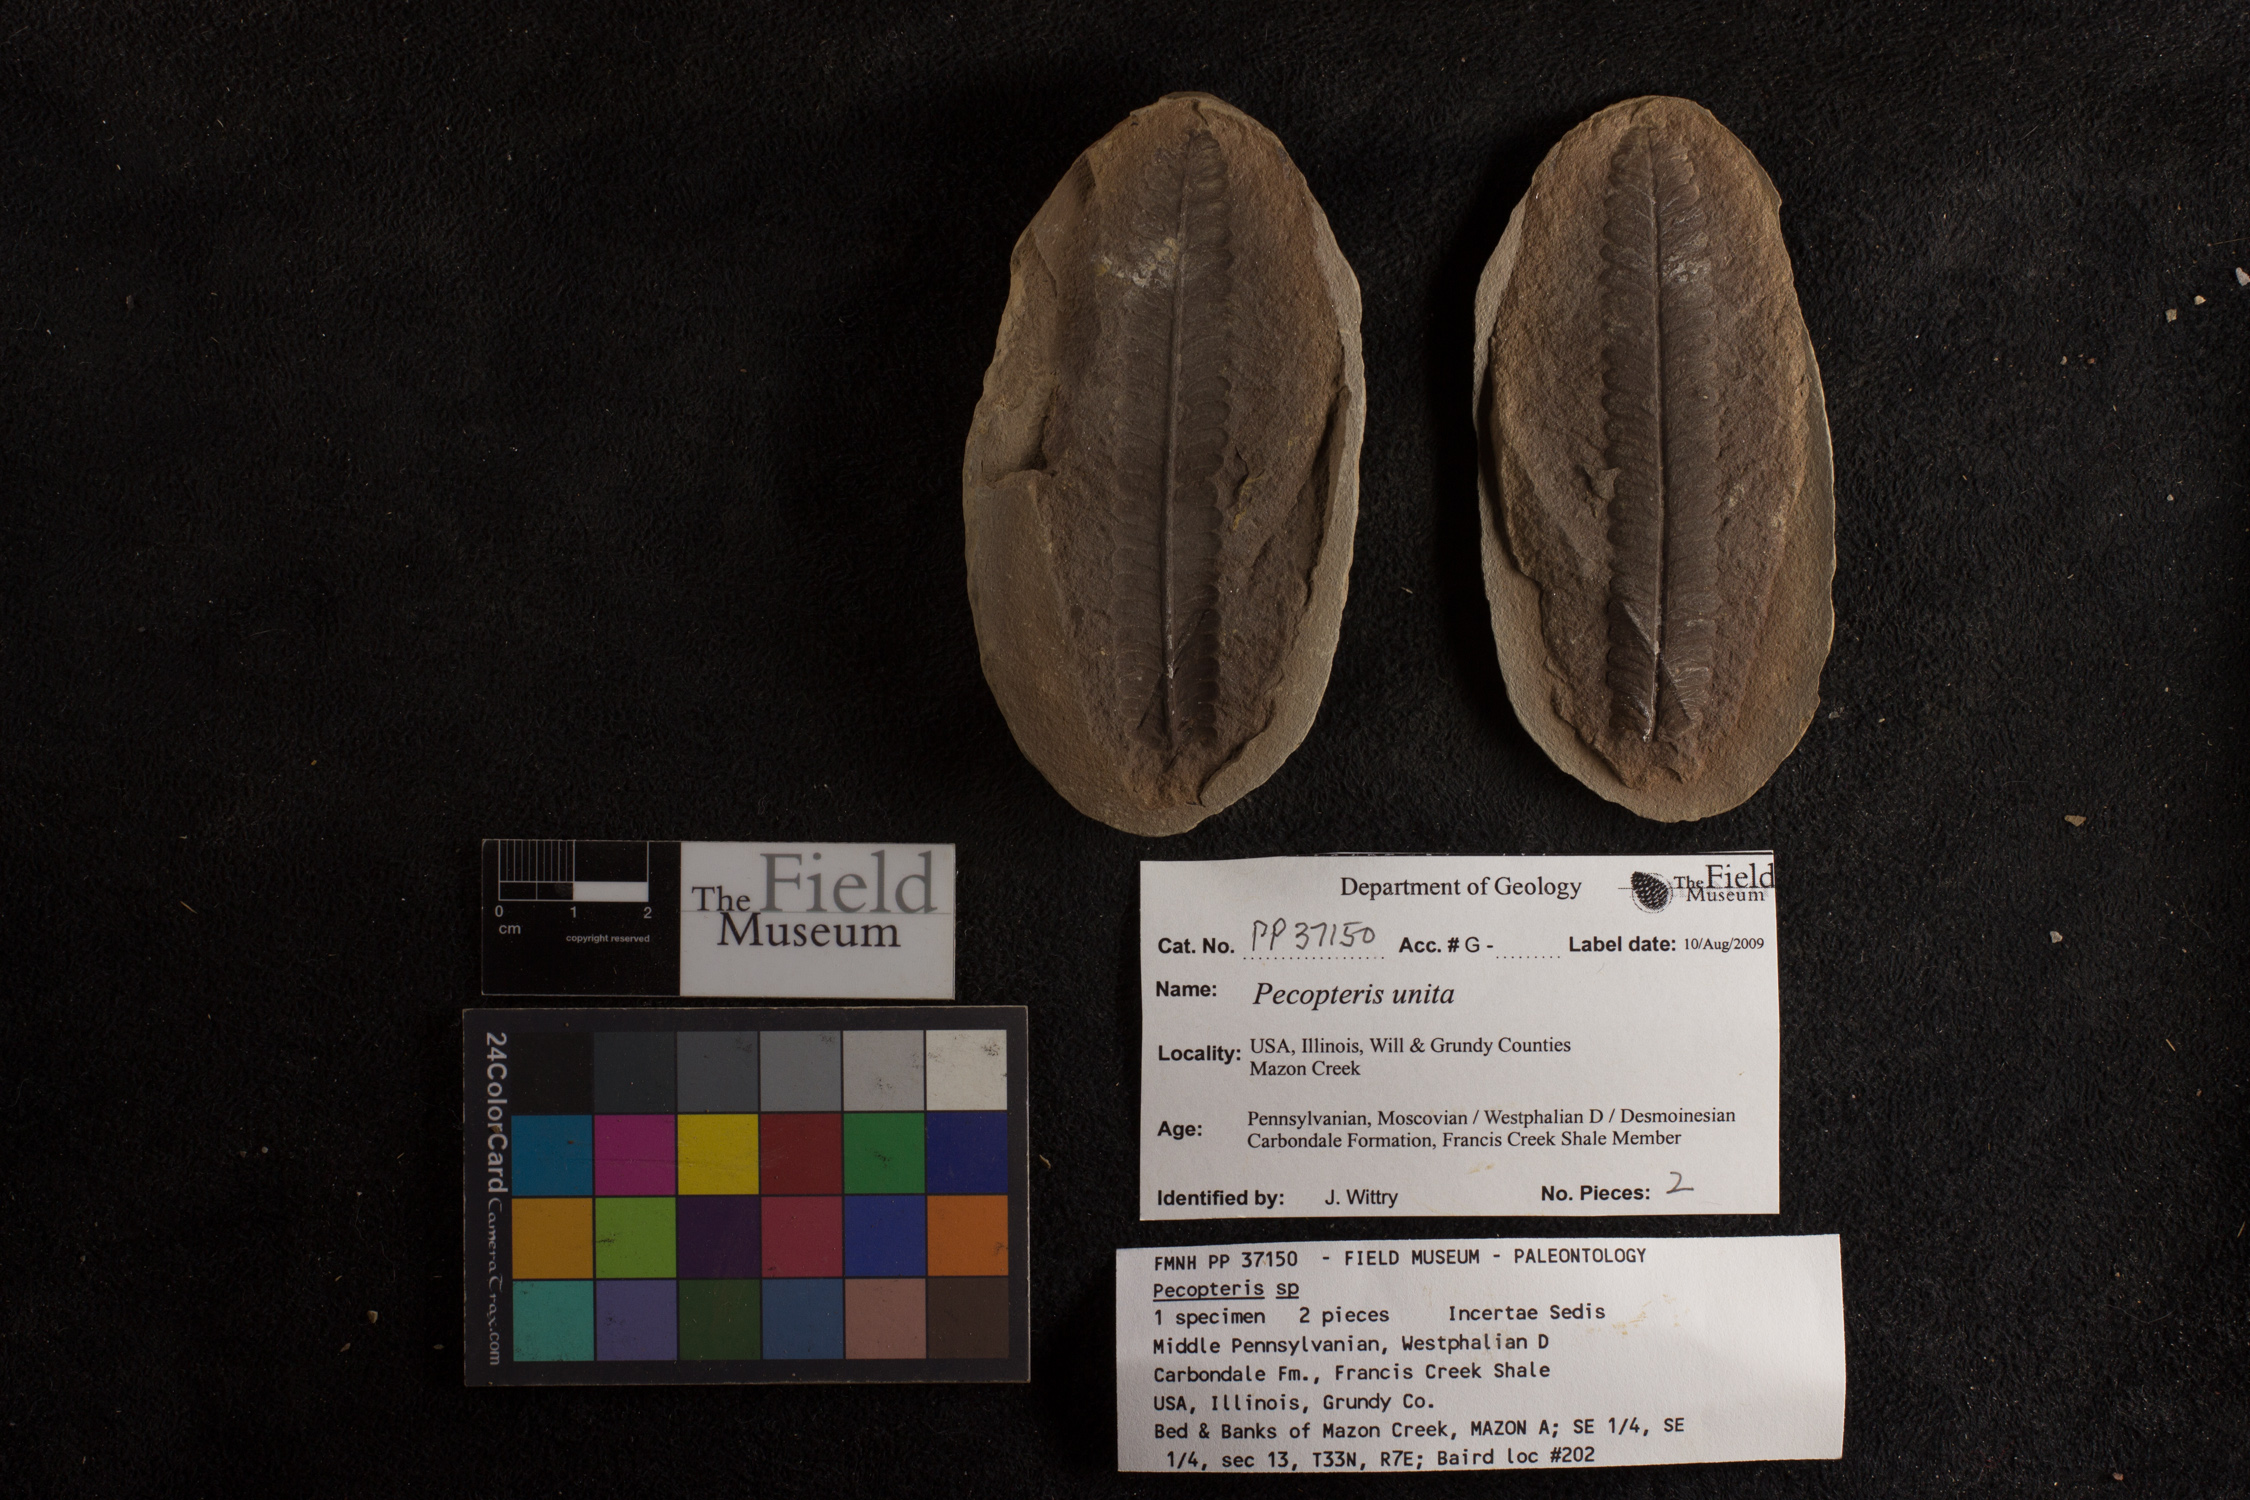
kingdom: Plantae
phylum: Tracheophyta
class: Polypodiopsida
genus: Diplazites
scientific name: Diplazites
